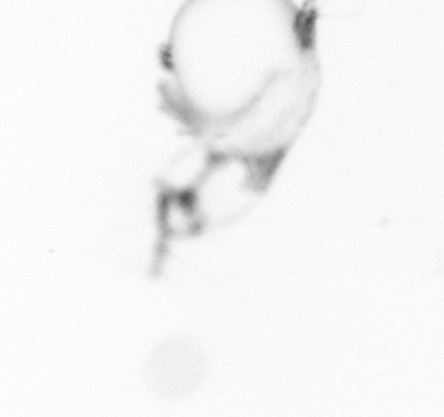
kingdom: Animalia
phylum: Annelida
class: Polychaeta
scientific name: Polychaeta
